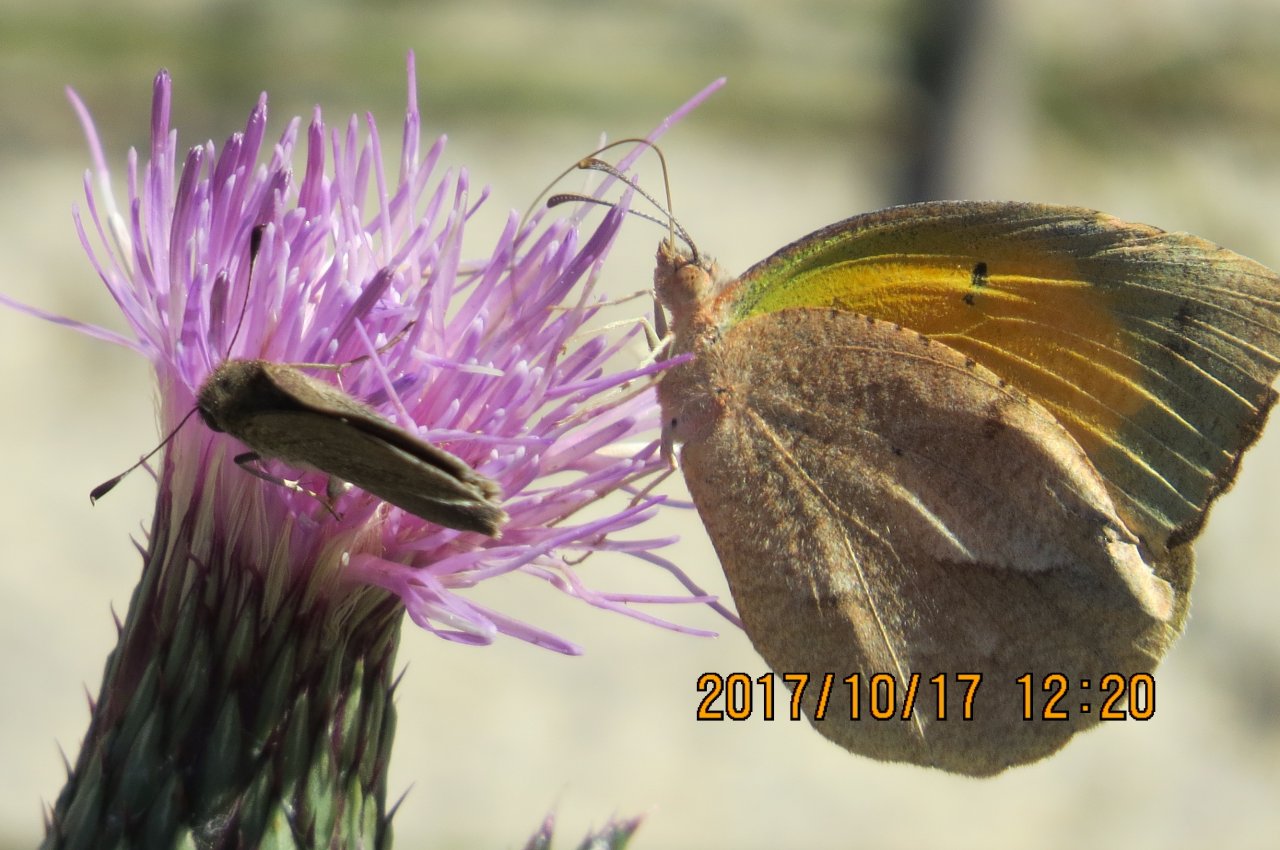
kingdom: Animalia
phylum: Arthropoda
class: Insecta
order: Lepidoptera
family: Pieridae
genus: Abaeis
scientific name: Abaeis nicippe
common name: Sleepy Orange
